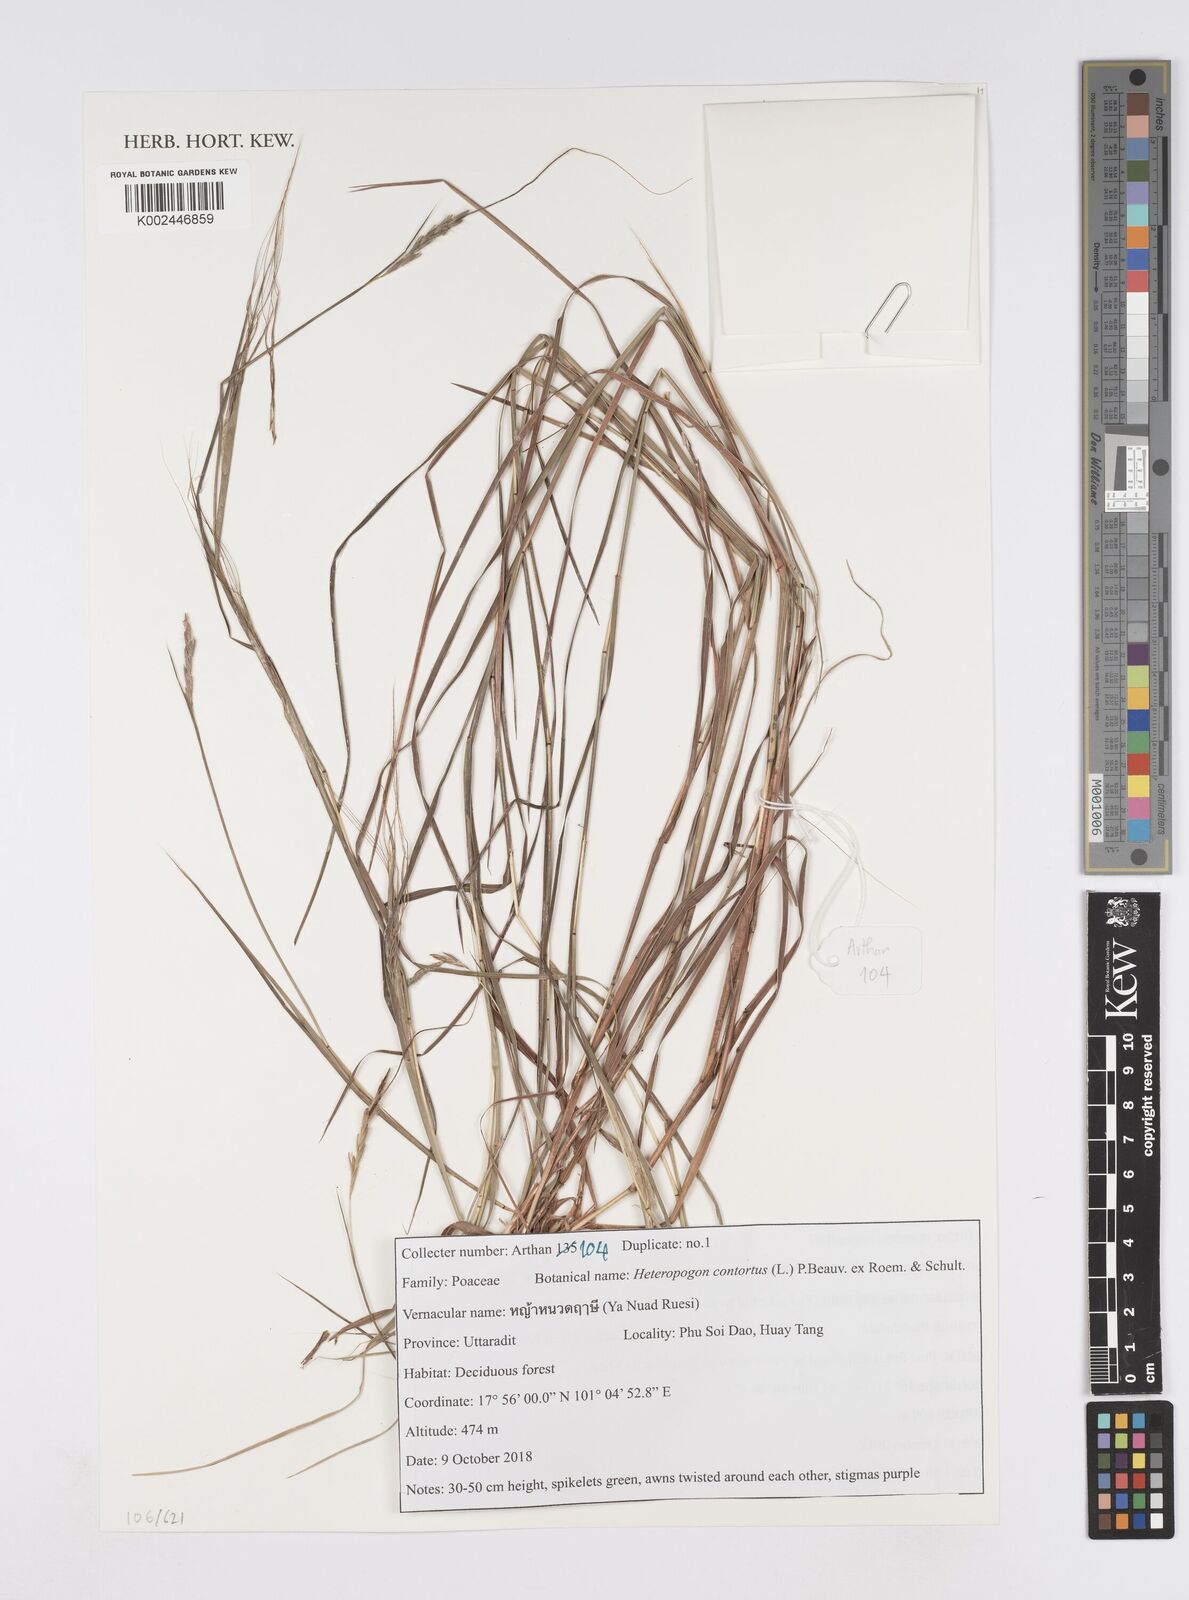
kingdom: Plantae
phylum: Tracheophyta
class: Liliopsida
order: Poales
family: Poaceae
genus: Heteropogon
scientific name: Heteropogon contortus
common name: Tanglehead
